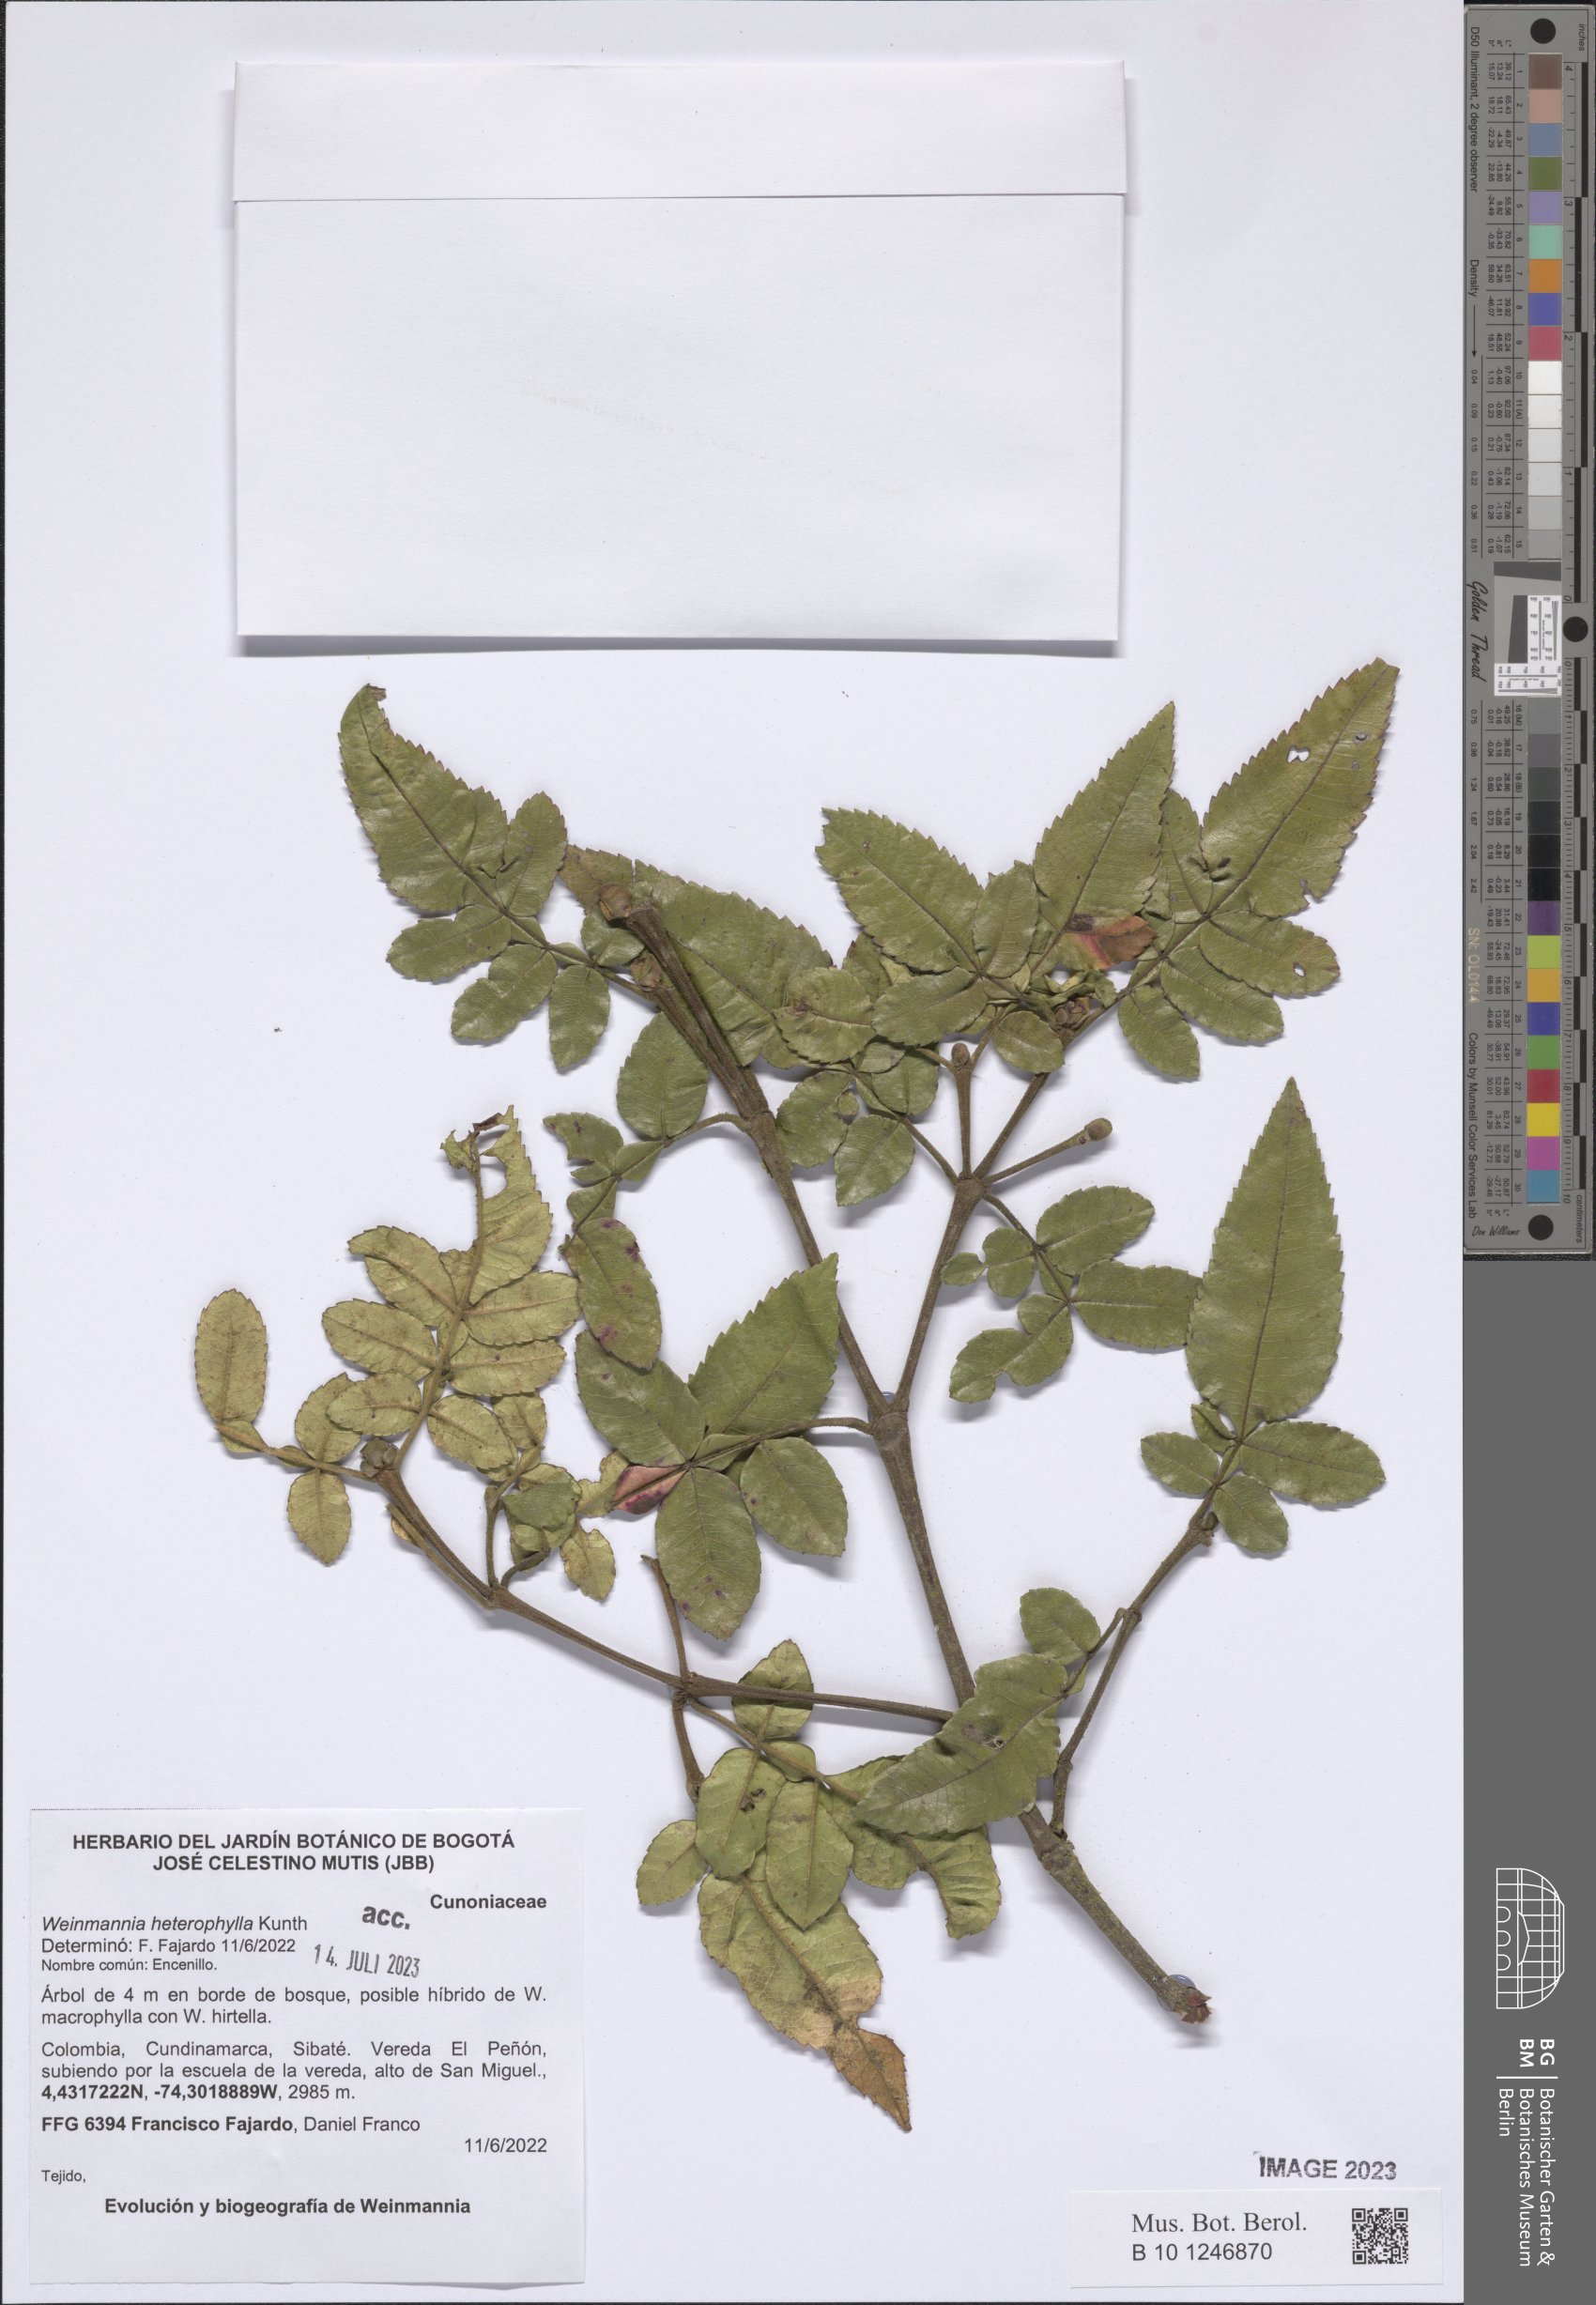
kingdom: Plantae
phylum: Tracheophyta
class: Magnoliopsida
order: Oxalidales
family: Cunoniaceae
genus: Weinmannia
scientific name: Weinmannia heterophylla
